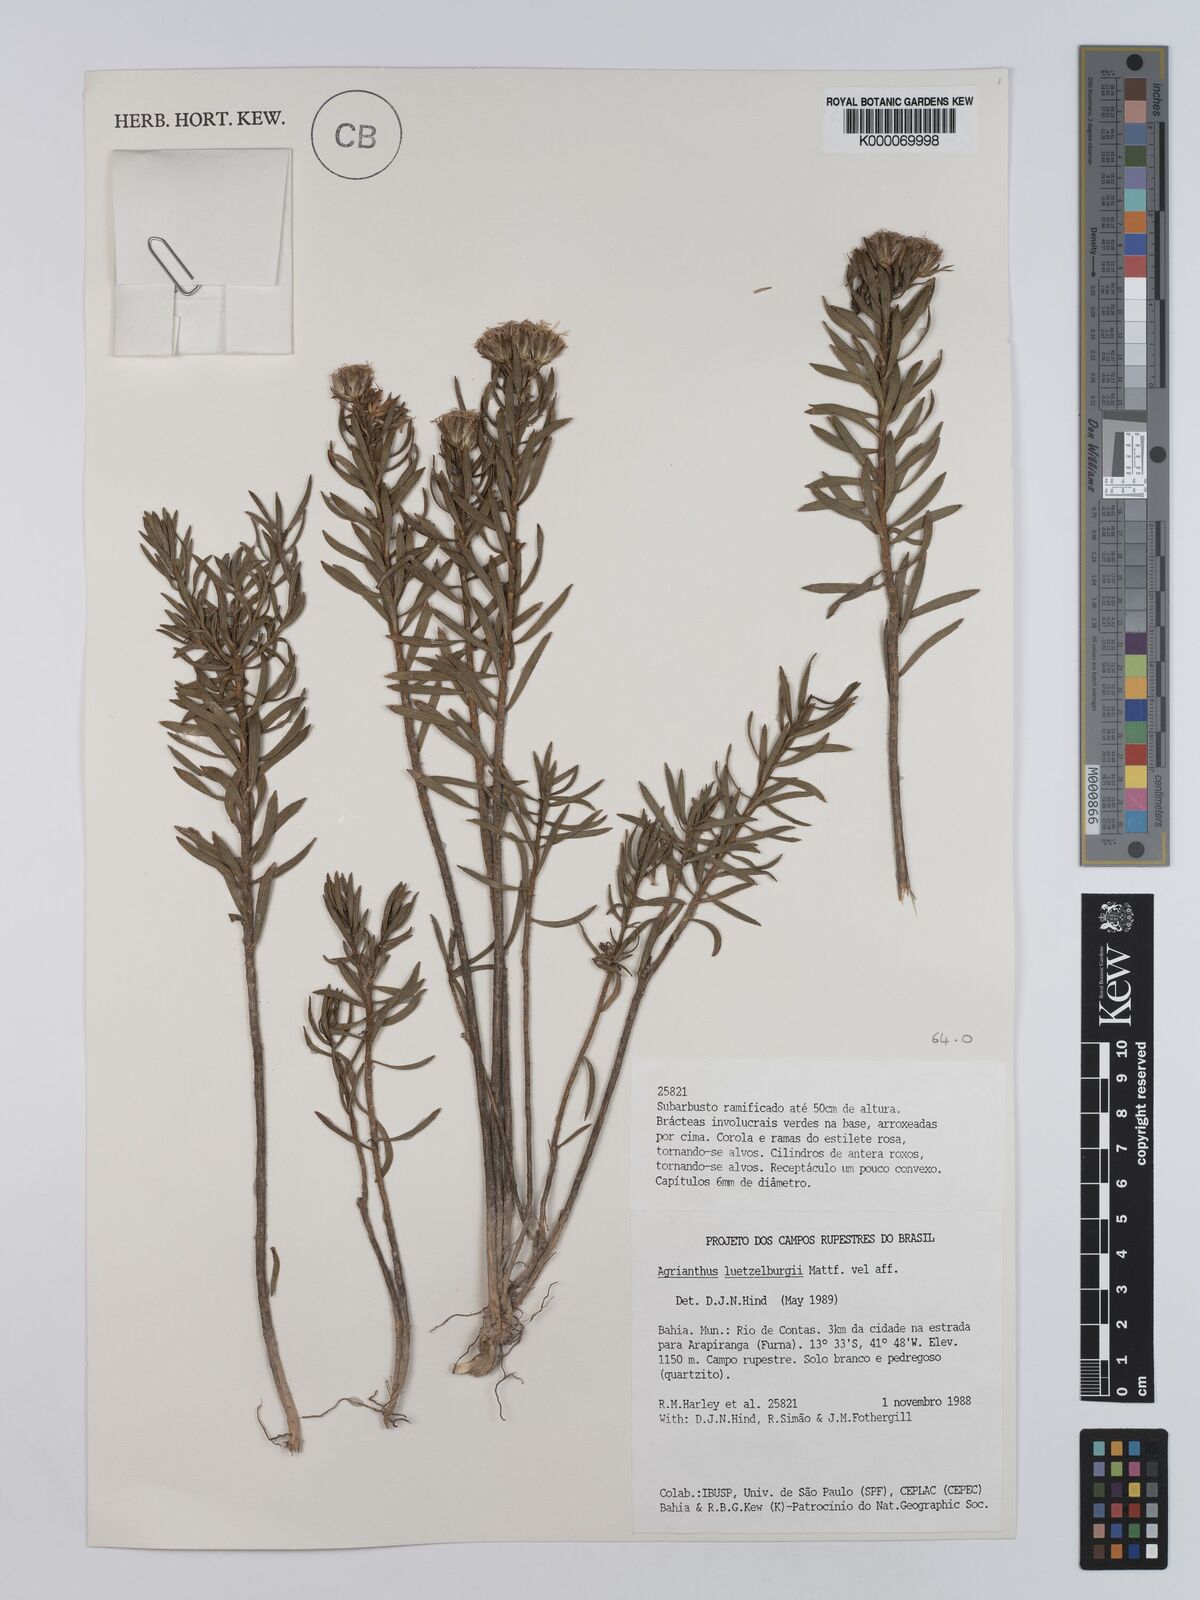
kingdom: Plantae
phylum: Tracheophyta
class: Magnoliopsida
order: Asterales
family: Asteraceae
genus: Agrianthus
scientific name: Agrianthus
